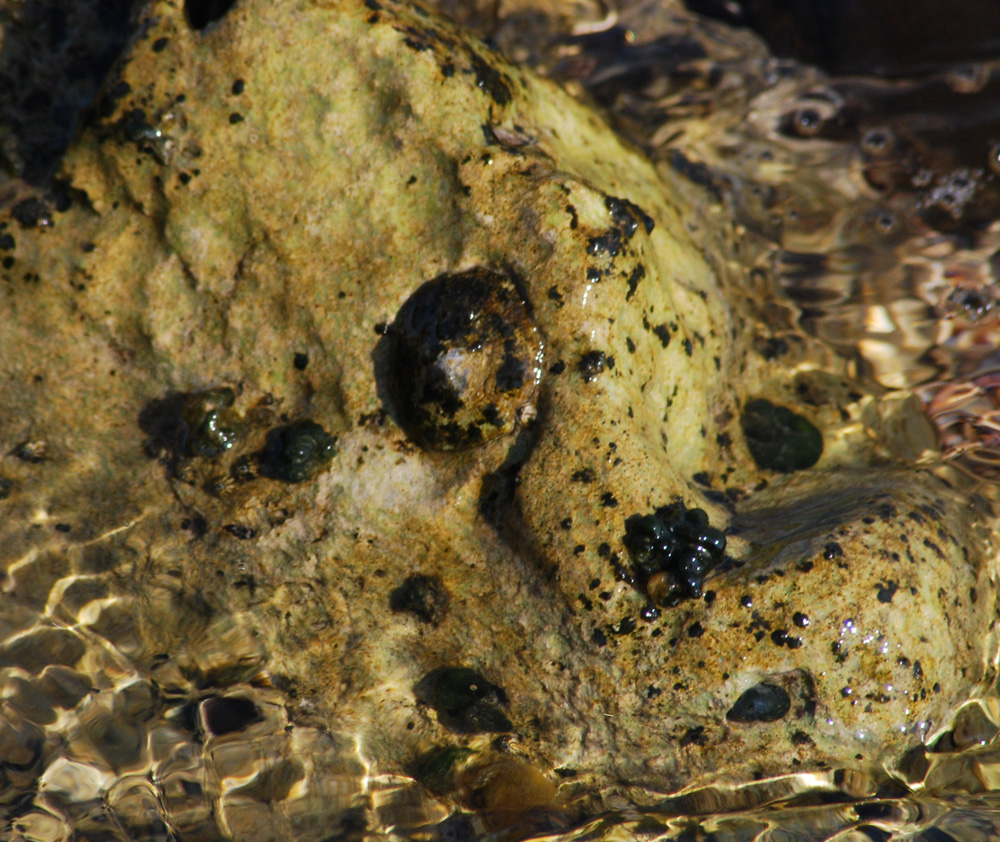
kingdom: Animalia
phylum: Mollusca
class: Gastropoda
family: Patellidae
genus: Patella
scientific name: Patella vulgata
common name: Common limpet
